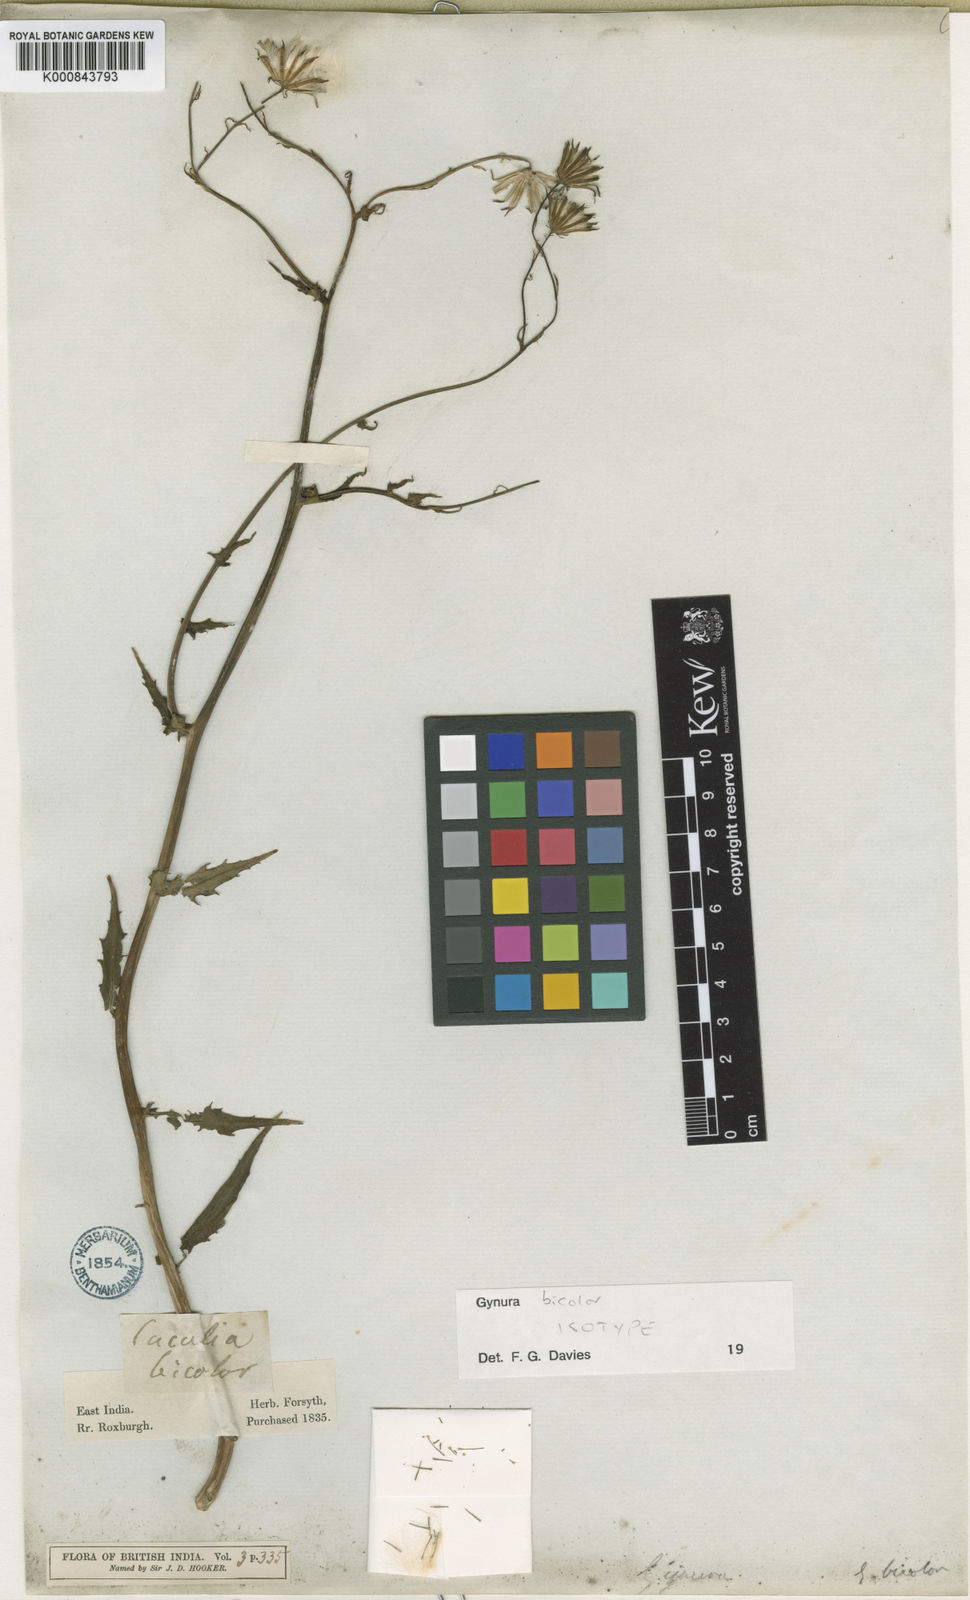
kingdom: Plantae
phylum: Tracheophyta
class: Magnoliopsida
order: Asterales
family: Asteraceae
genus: Gynura
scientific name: Gynura bicolor
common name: Red-vegetable
